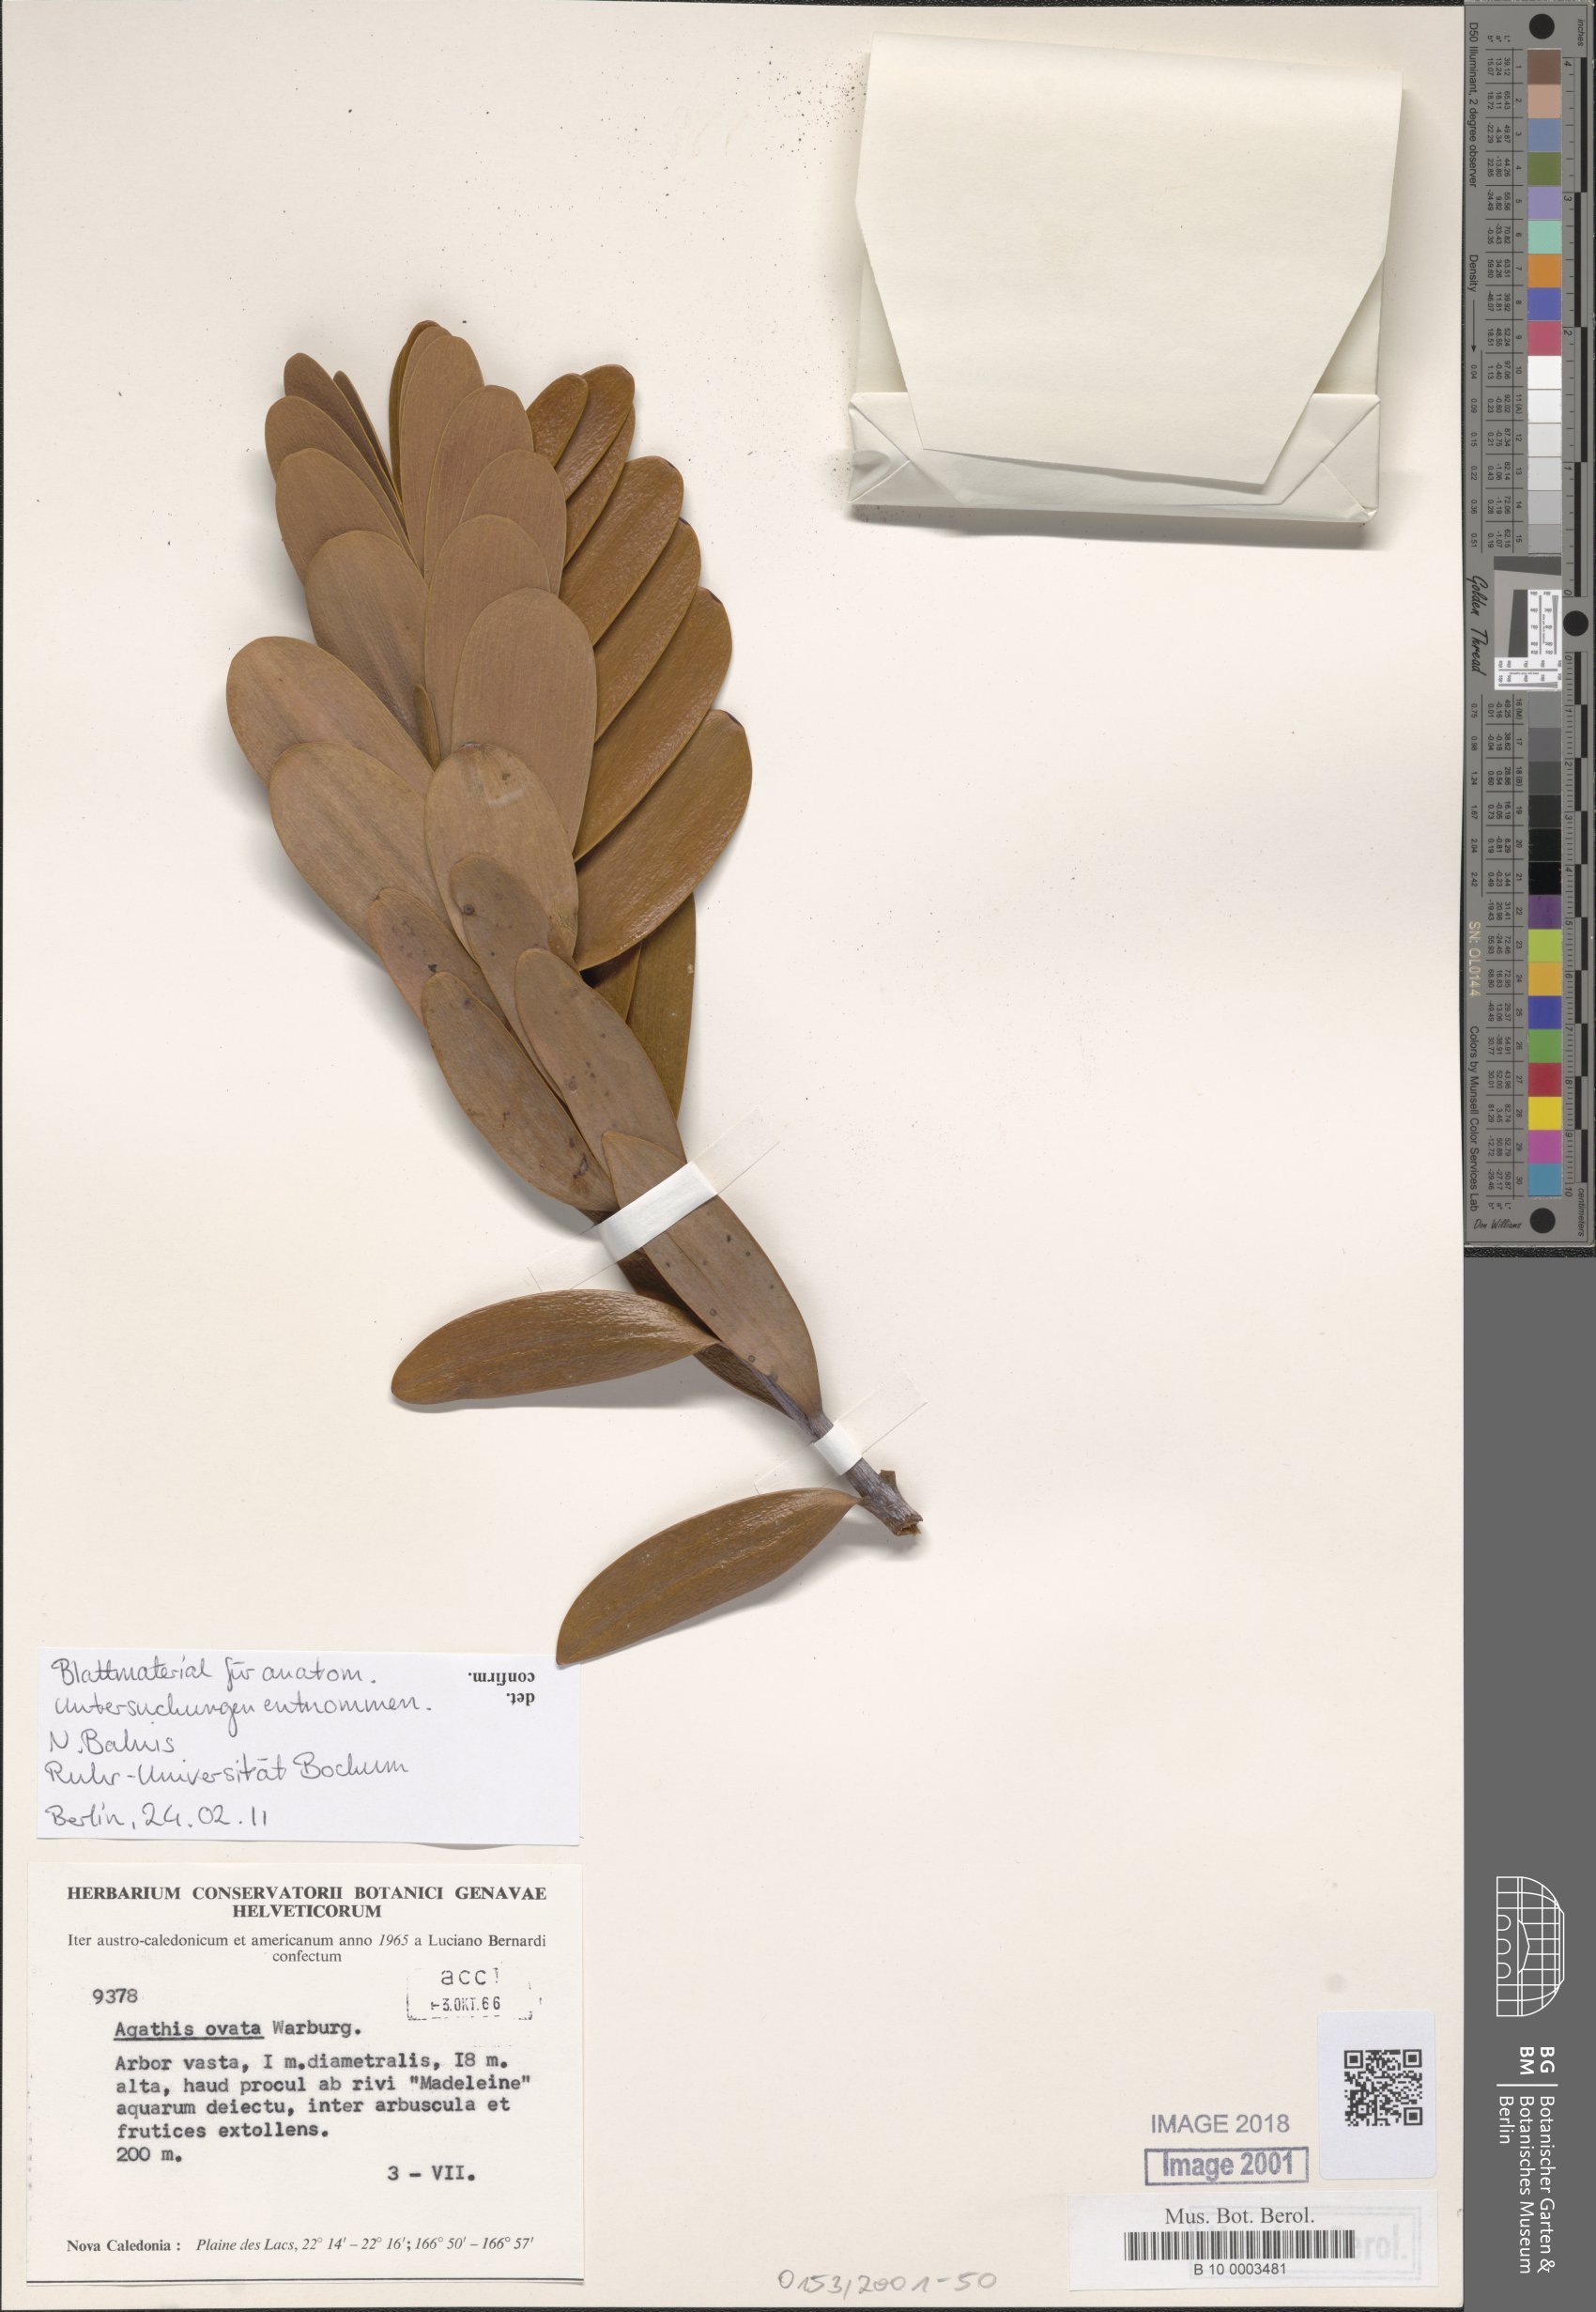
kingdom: Plantae
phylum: Tracheophyta
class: Pinopsida
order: Pinales
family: Araucariaceae
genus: Agathis
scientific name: Agathis ovata
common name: Scrub kauri
